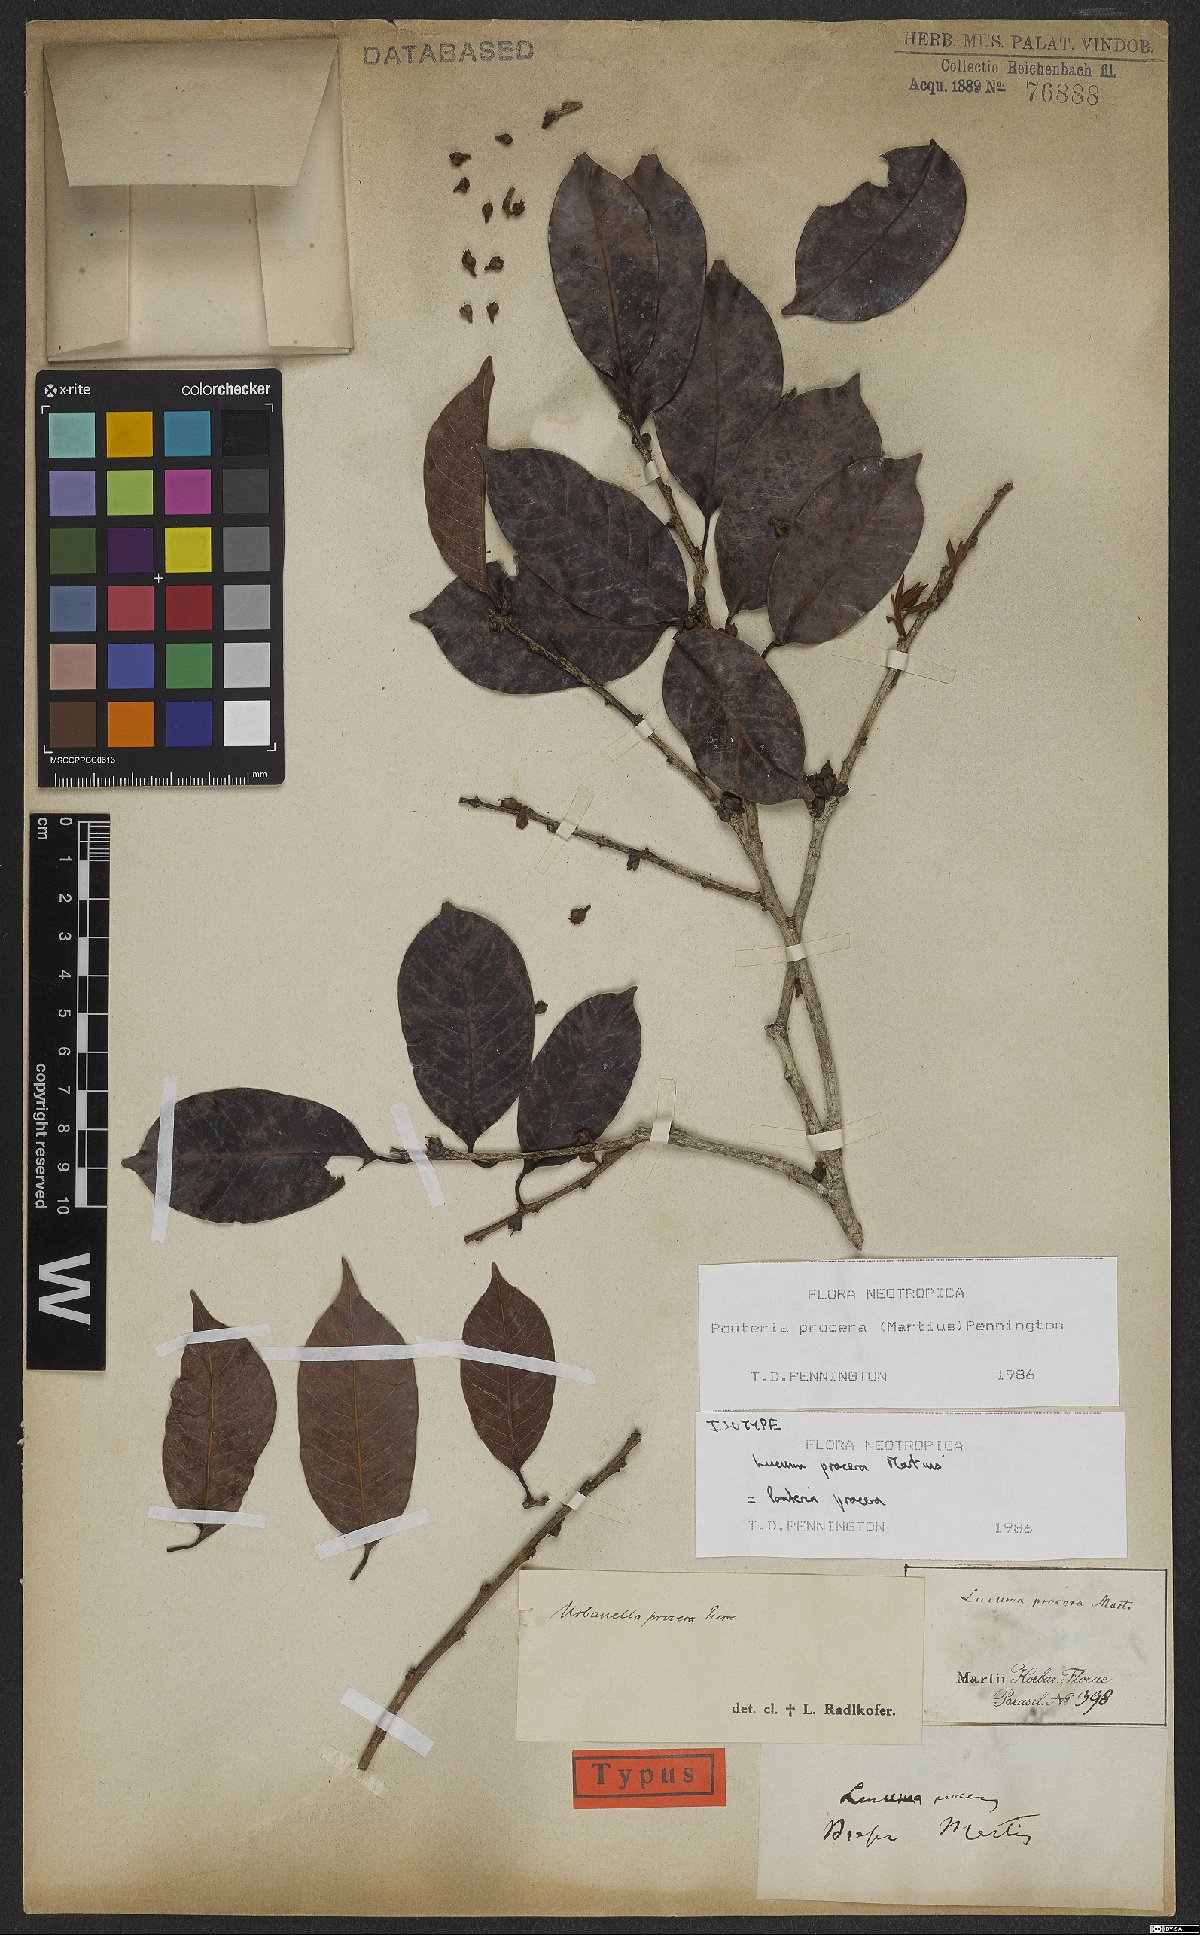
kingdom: Plantae
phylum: Tracheophyta
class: Magnoliopsida
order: Ericales
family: Sapotaceae
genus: Pouteria
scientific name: Pouteria procera
